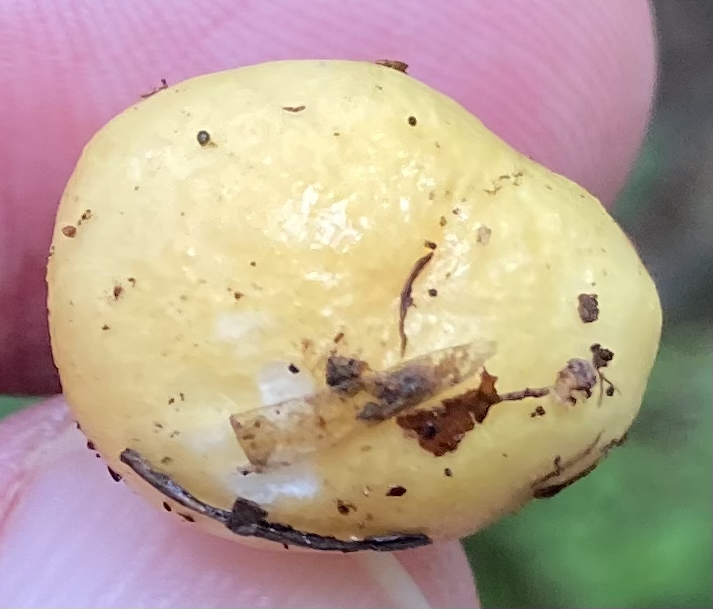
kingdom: Fungi
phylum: Basidiomycota
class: Agaricomycetes
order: Russulales
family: Russulaceae
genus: Russula
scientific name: Russula
